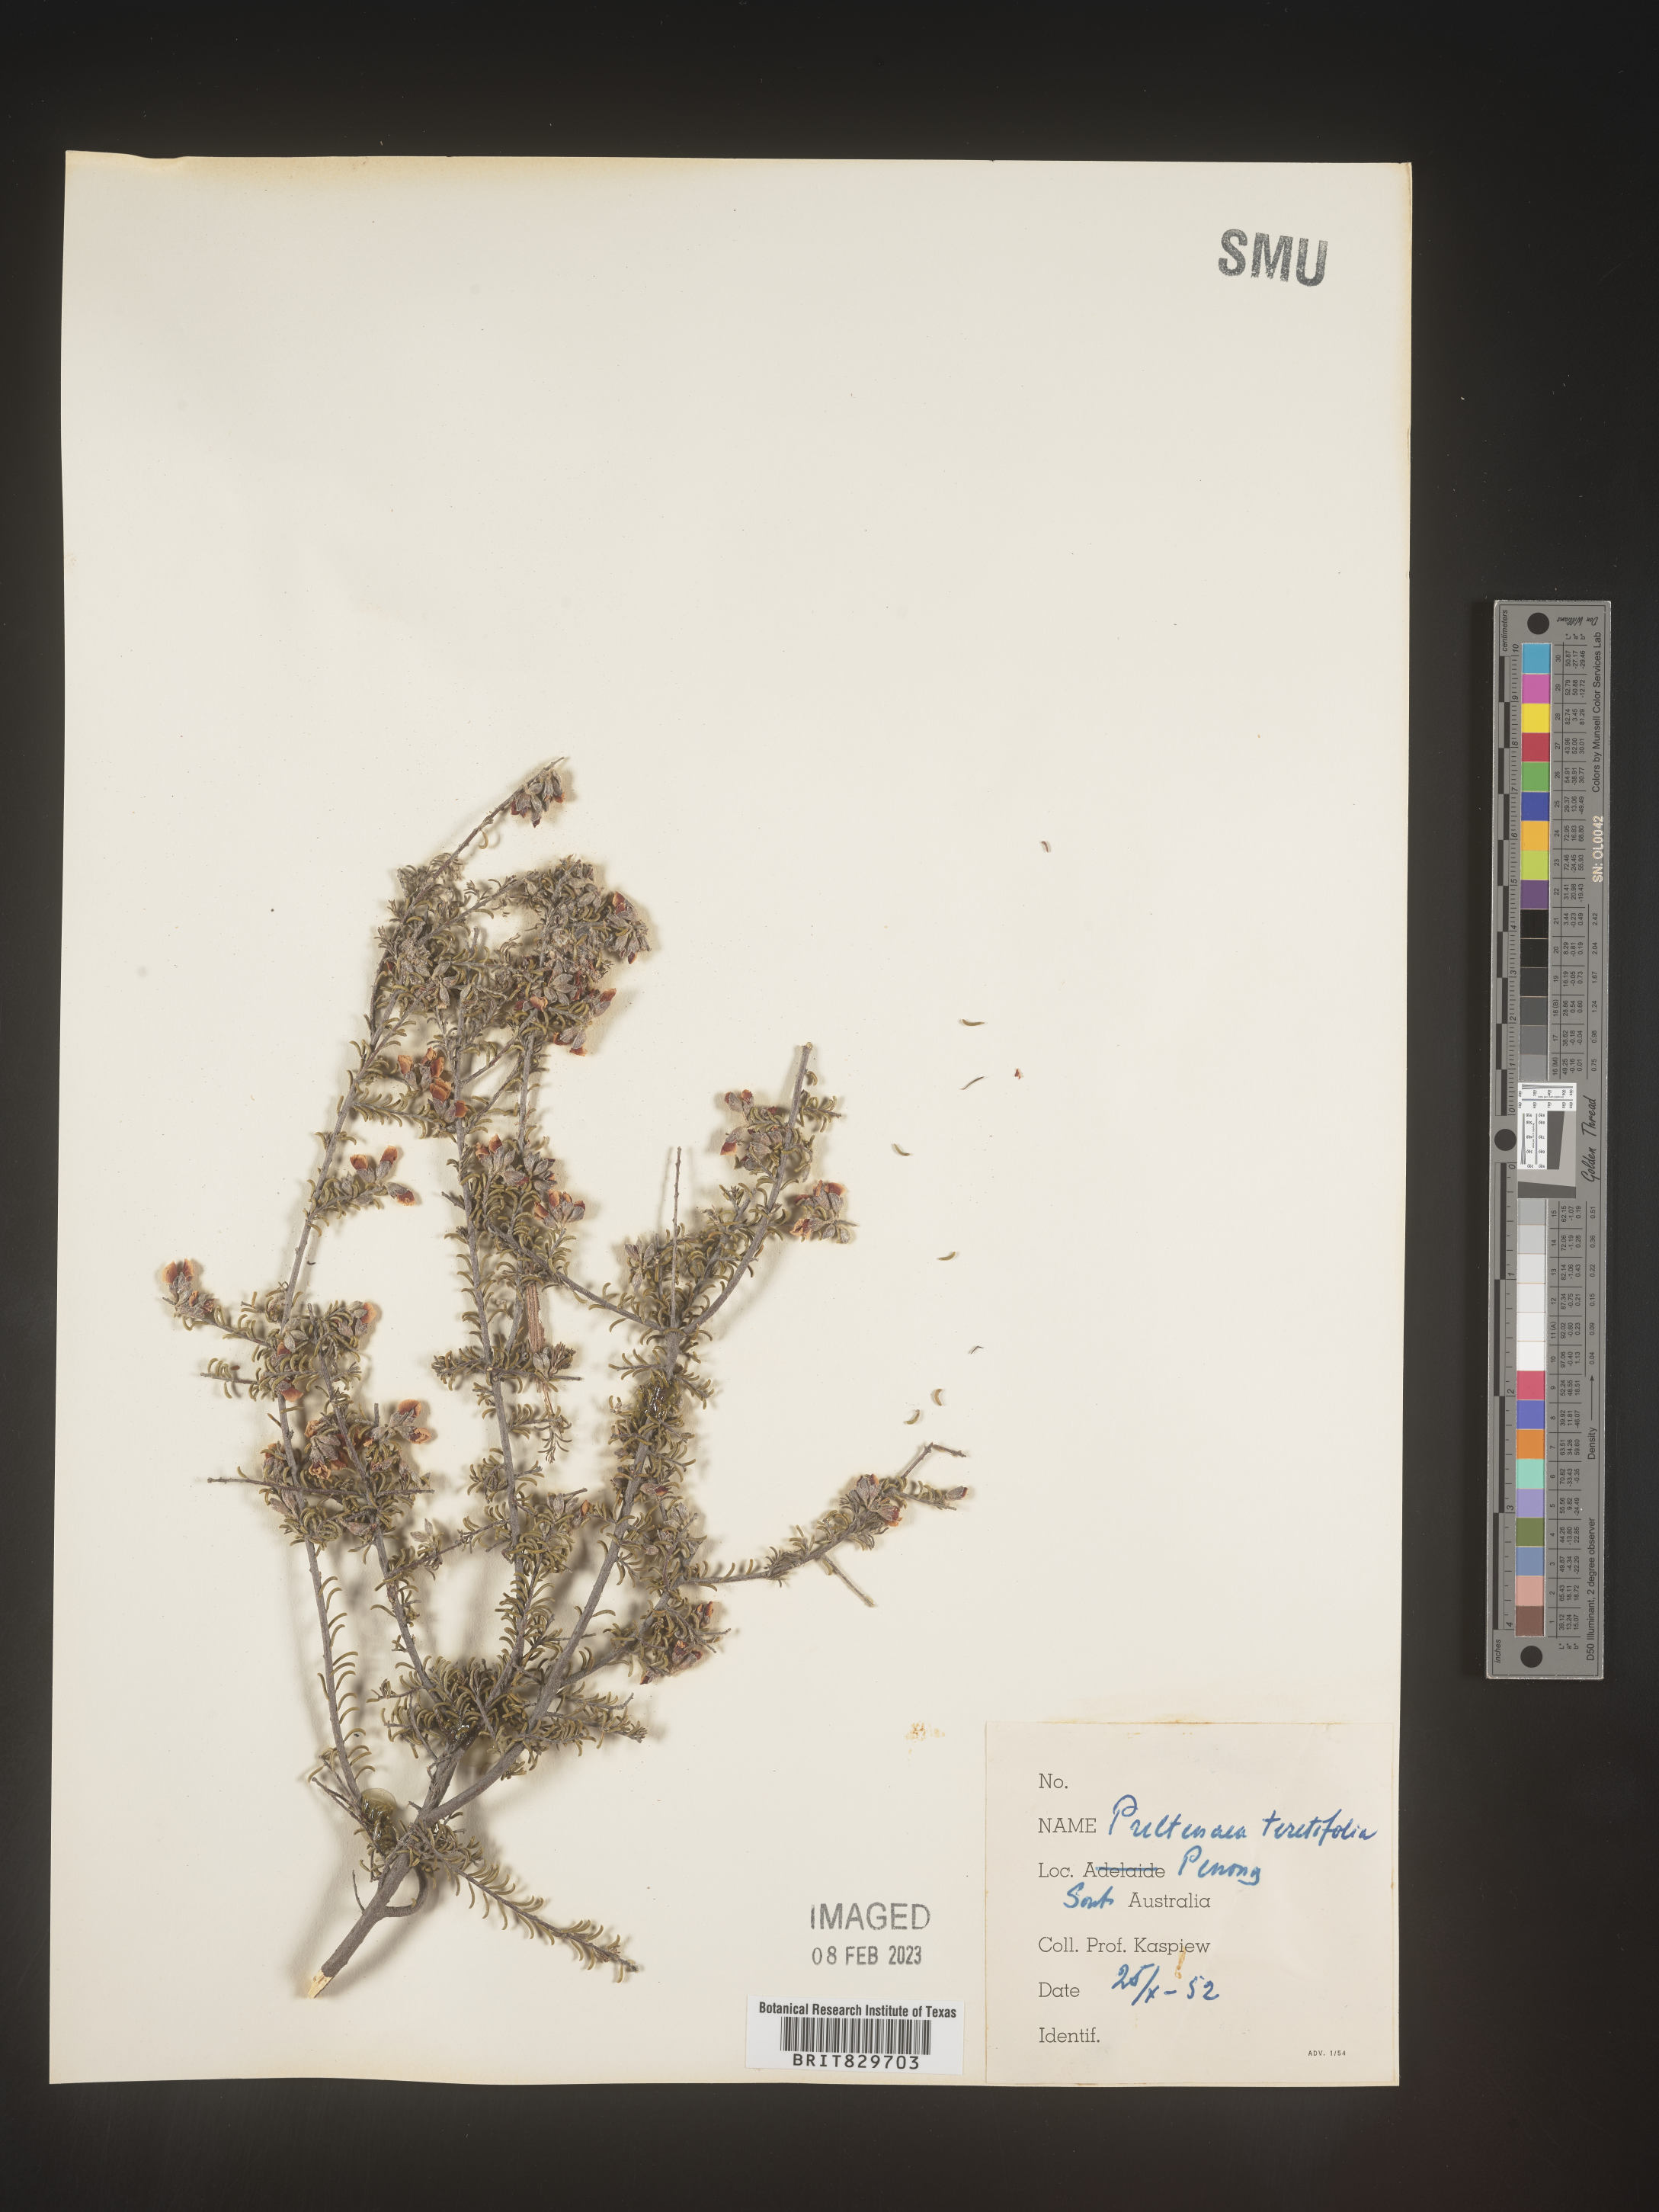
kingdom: Plantae
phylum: Tracheophyta
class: Magnoliopsida
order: Fabales
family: Fabaceae
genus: Pultenaea
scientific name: Pultenaea
